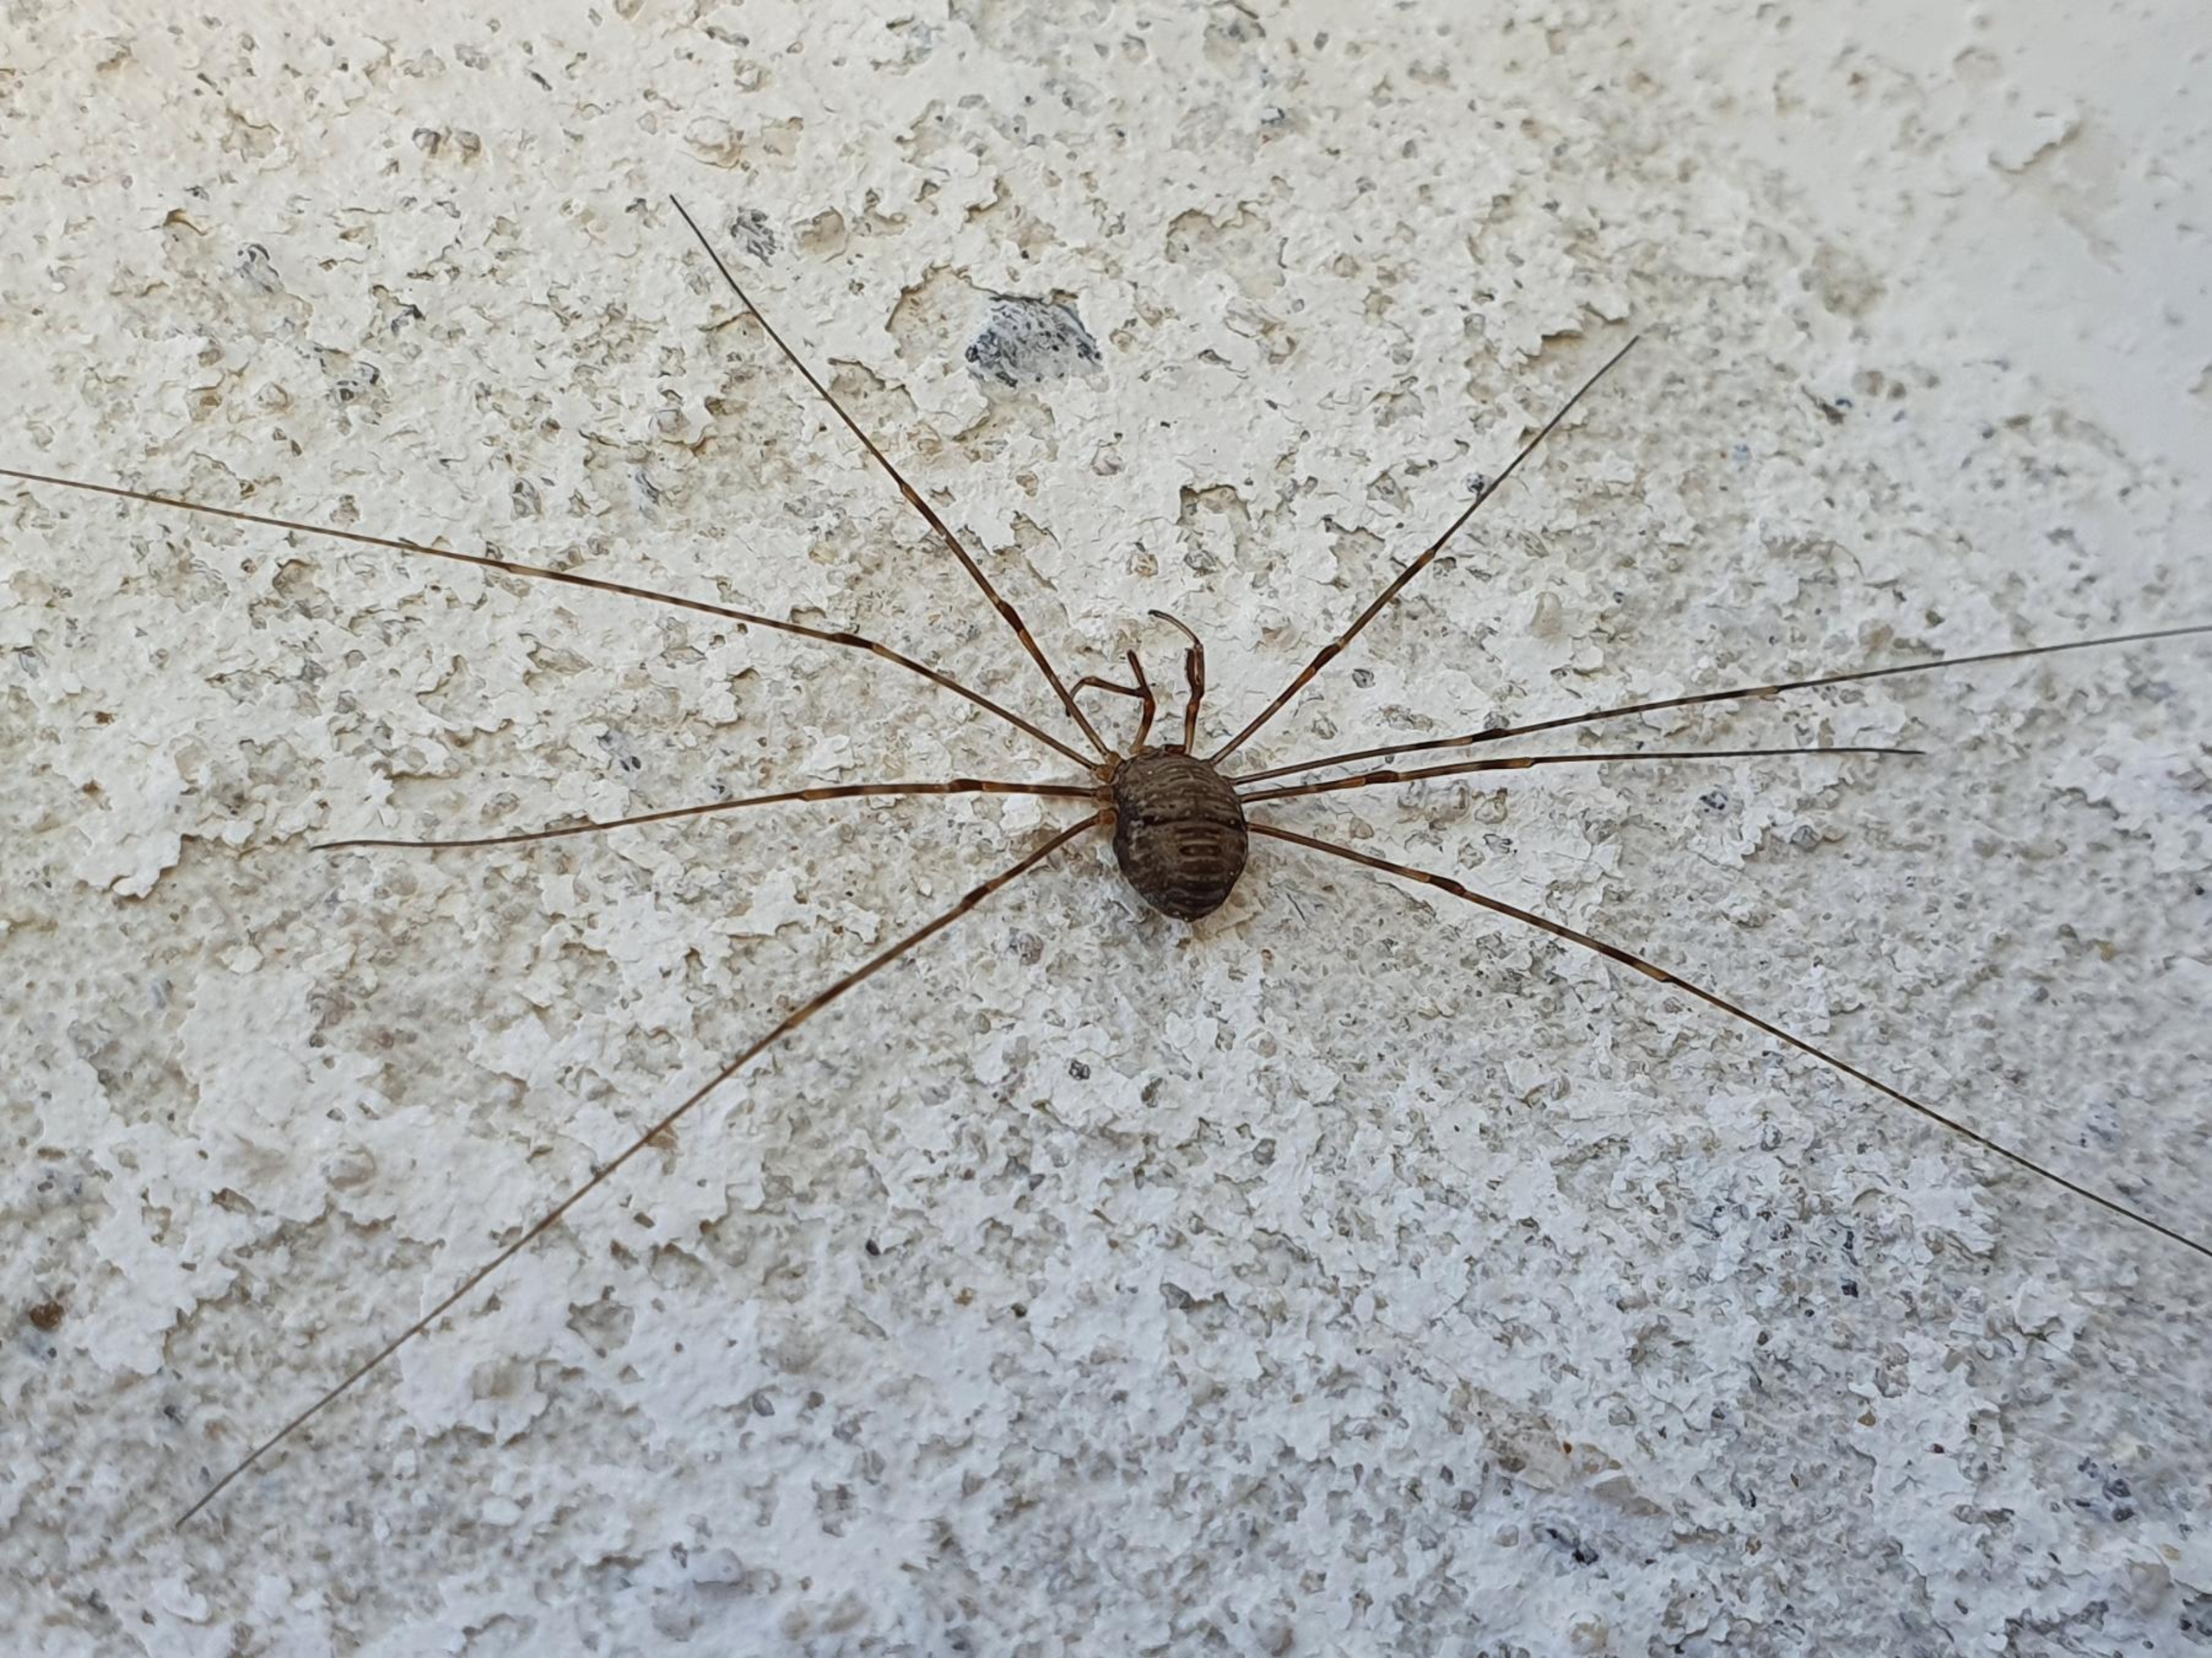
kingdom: Animalia
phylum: Arthropoda
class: Arachnida
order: Opiliones
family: Phalangiidae
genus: Dicranopalpus
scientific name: Dicranopalpus ramosus
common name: Gaffelmejer
